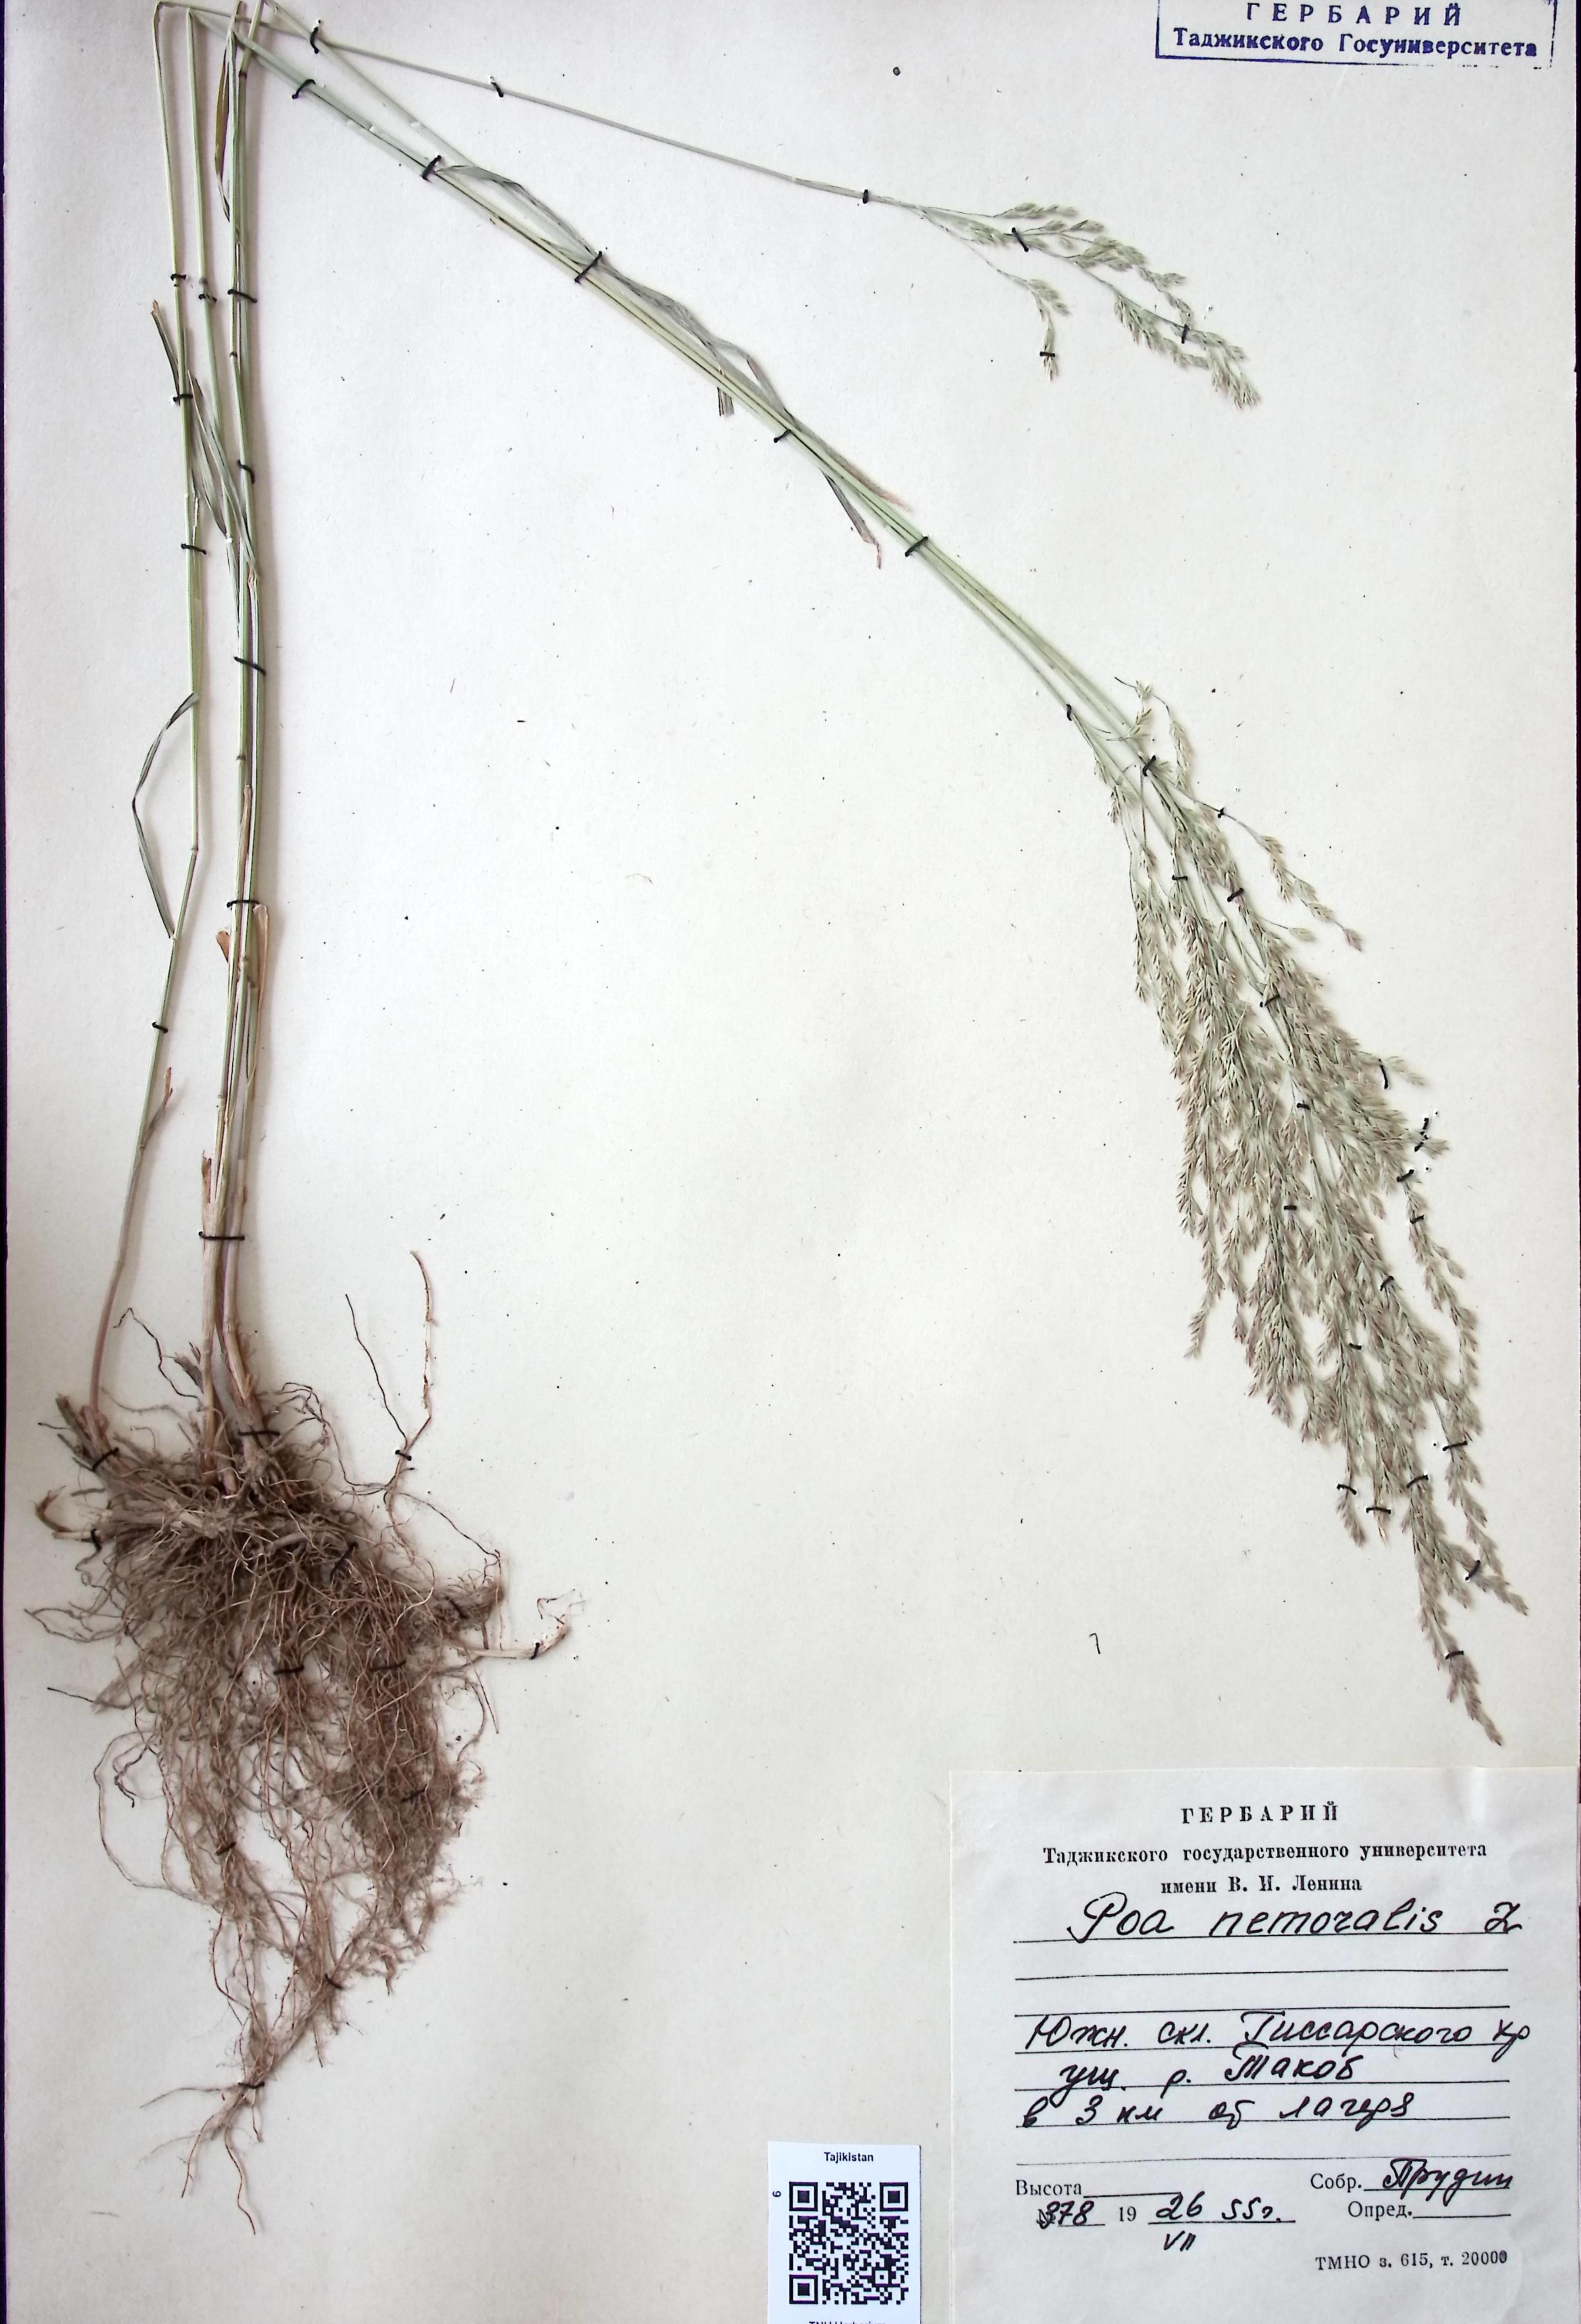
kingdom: Plantae
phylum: Tracheophyta
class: Liliopsida
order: Poales
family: Poaceae
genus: Poa
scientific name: Poa nemoralis
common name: Wood bluegrass
